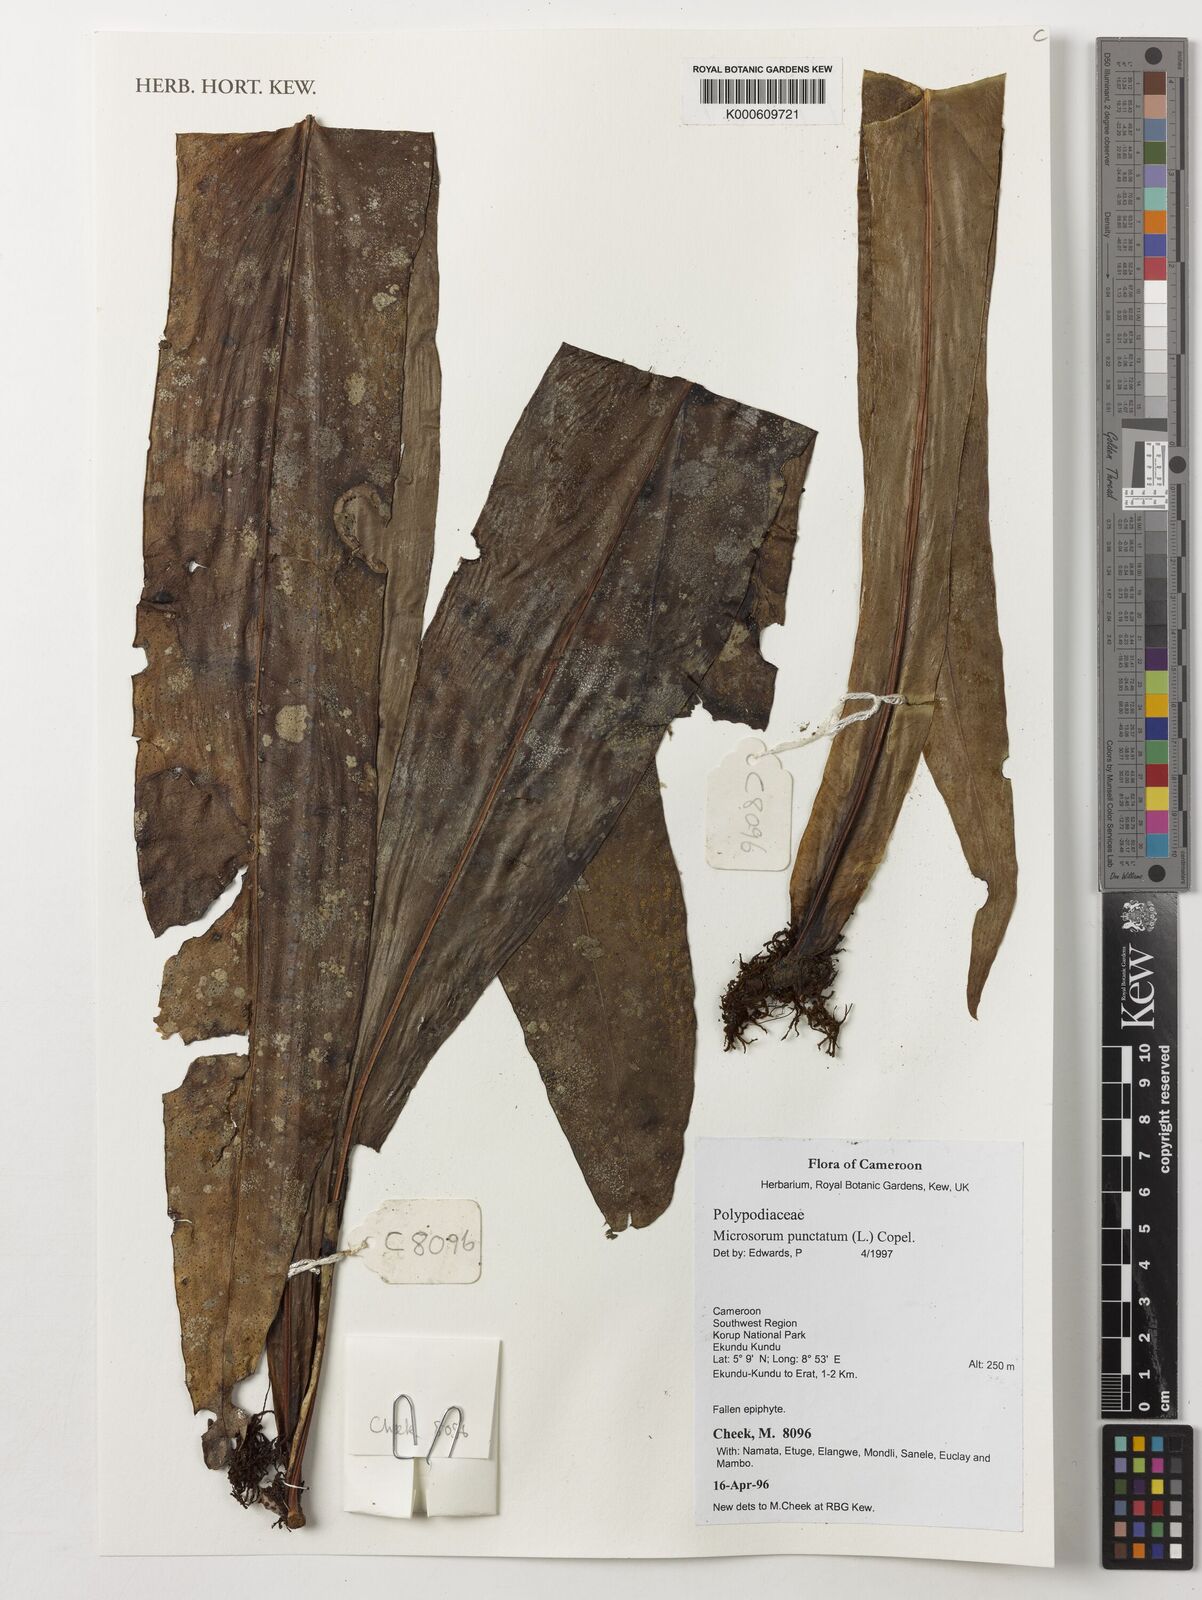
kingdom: Plantae
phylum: Tracheophyta
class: Polypodiopsida
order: Polypodiales
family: Polypodiaceae
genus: Microsorum
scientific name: Microsorum
